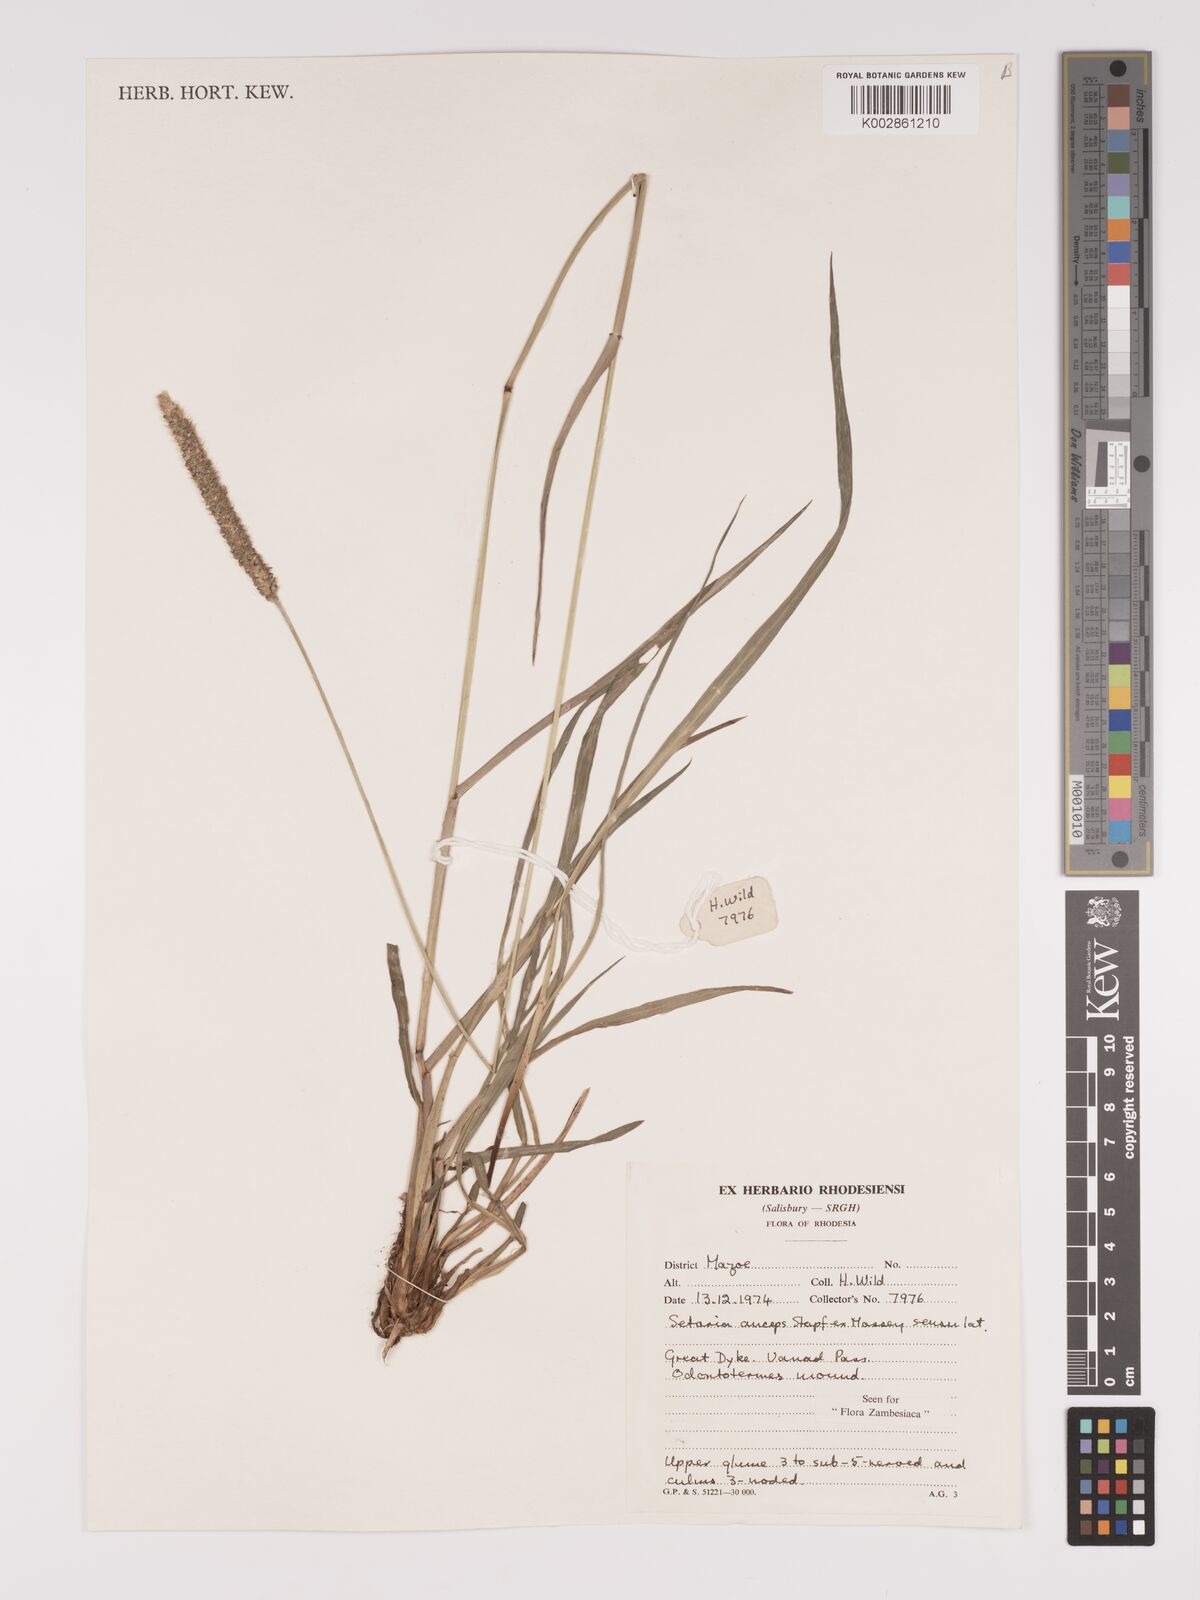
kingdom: Plantae
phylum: Tracheophyta
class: Liliopsida
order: Poales
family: Poaceae
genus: Setaria
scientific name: Setaria sphacelata
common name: African bristlegrass
